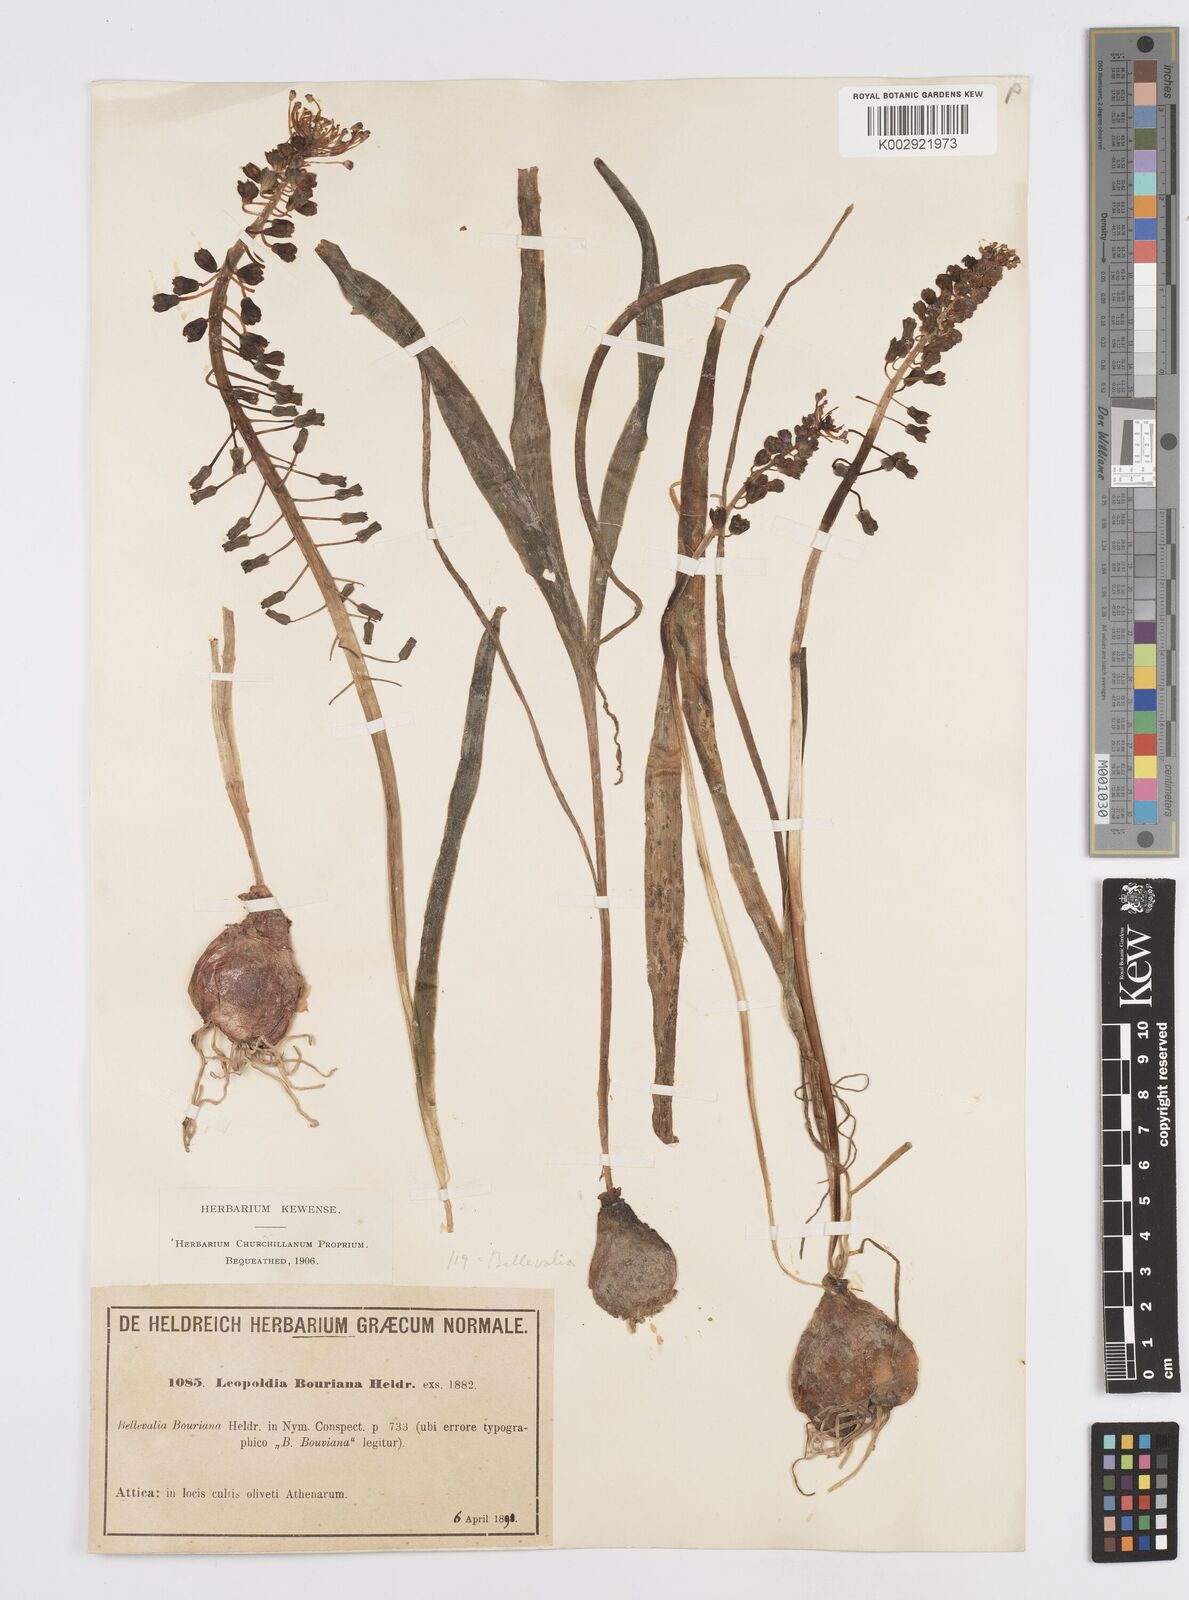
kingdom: Plantae
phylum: Tracheophyta
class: Liliopsida
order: Asparagales
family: Asparagaceae
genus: Muscari
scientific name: Muscari comosum
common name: Tassel hyacinth
